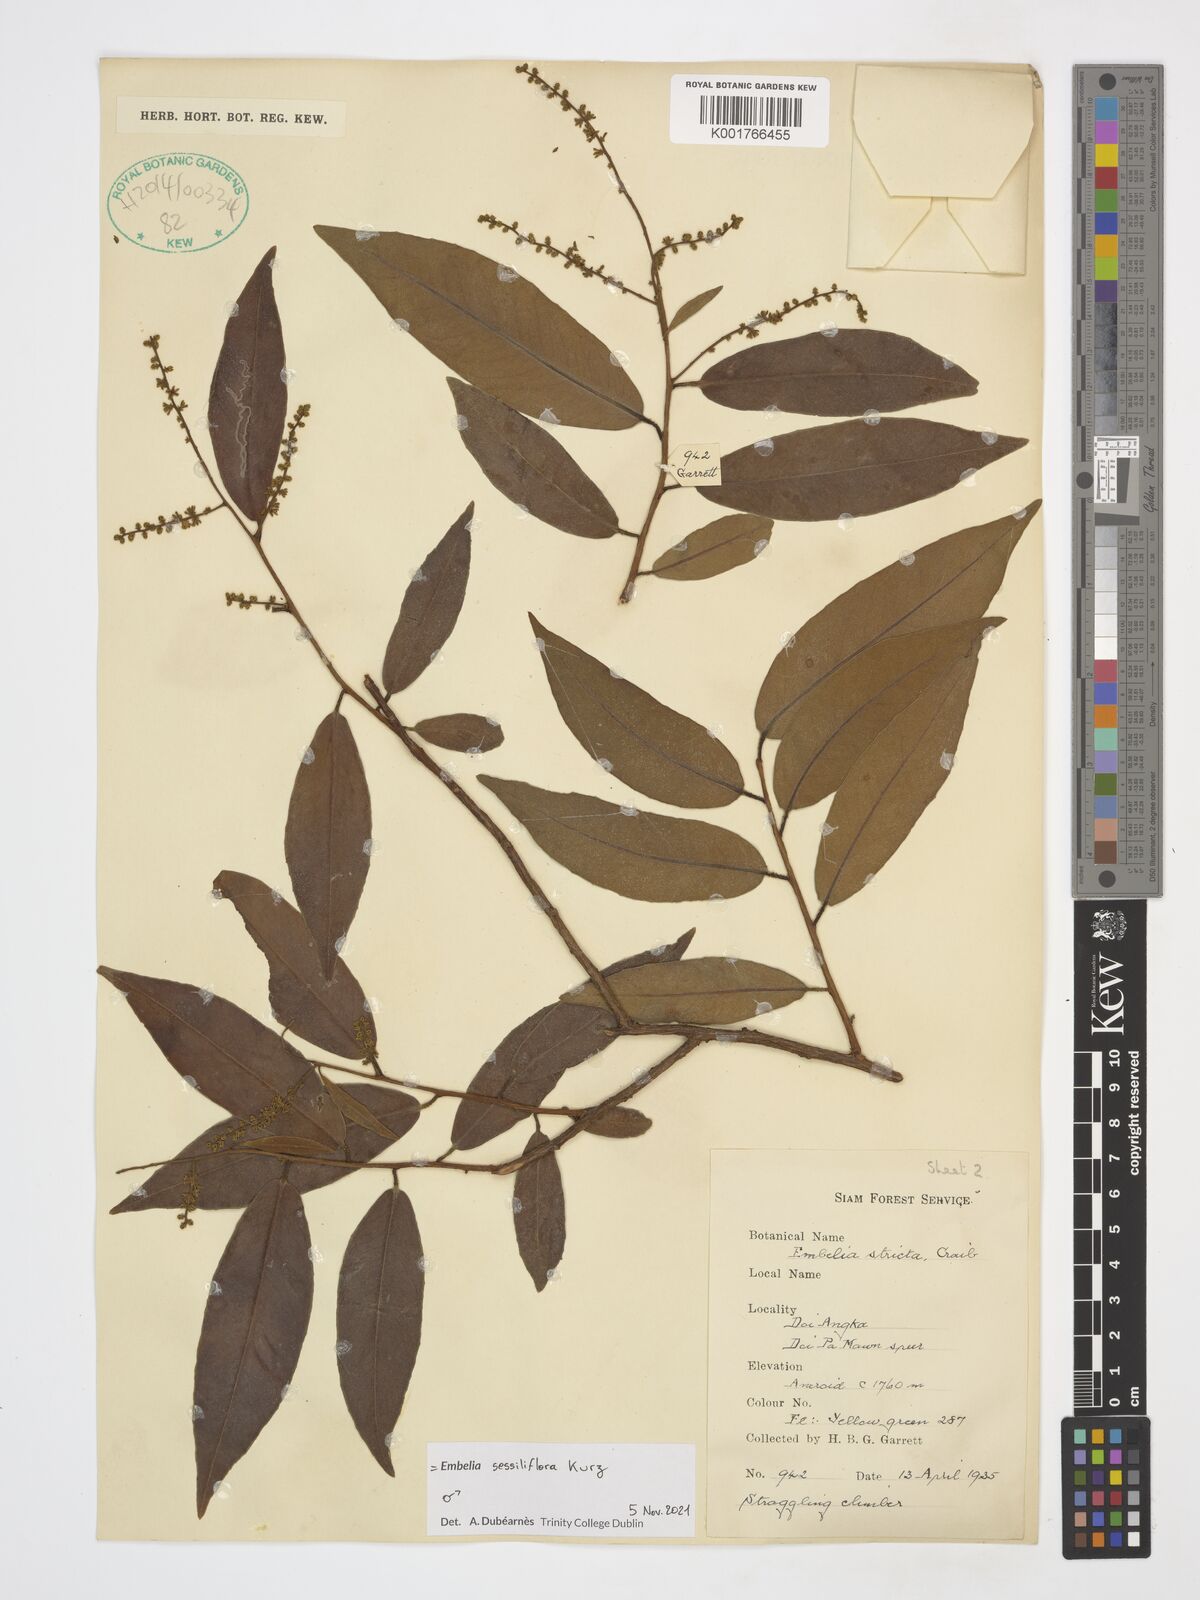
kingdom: Plantae
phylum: Tracheophyta
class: Magnoliopsida
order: Ericales
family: Primulaceae
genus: Embelia
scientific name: Embelia sessiliflora
